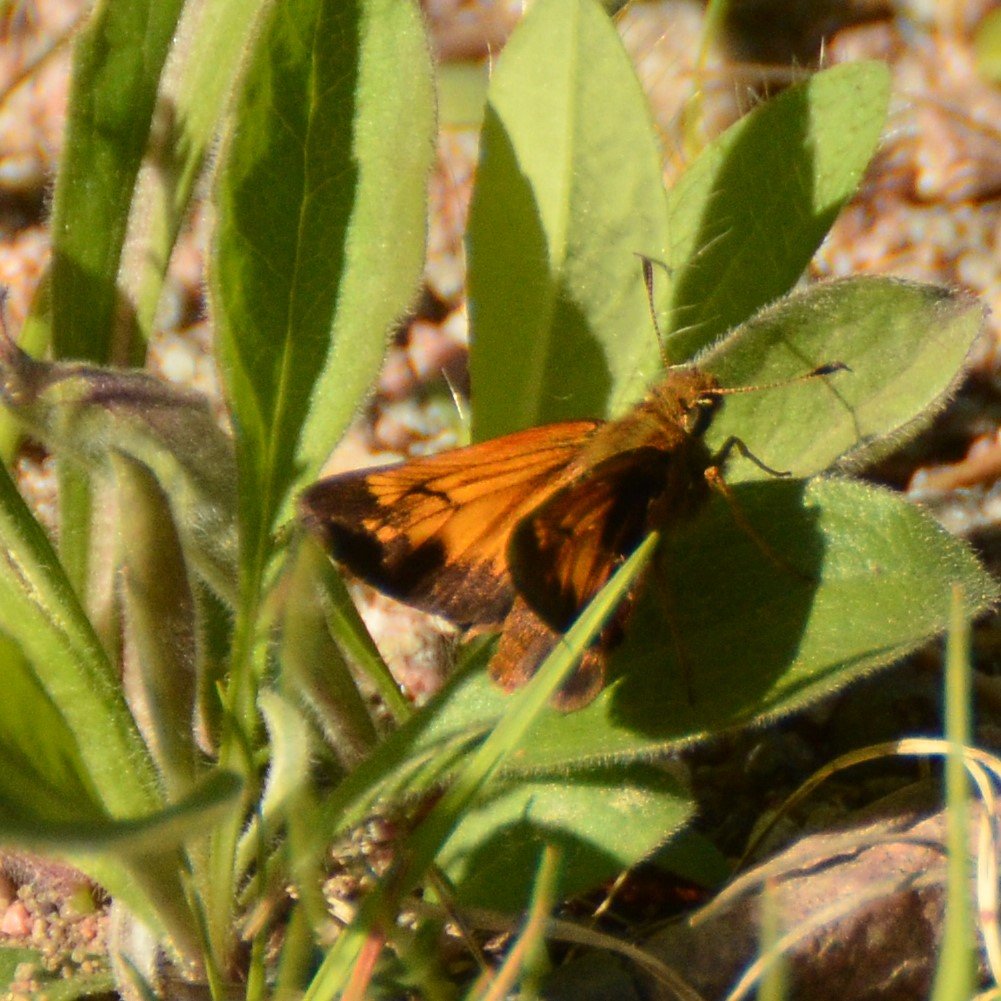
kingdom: Animalia
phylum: Arthropoda
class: Insecta
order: Lepidoptera
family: Hesperiidae
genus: Lon
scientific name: Lon hobomok
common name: Hobomok Skipper
